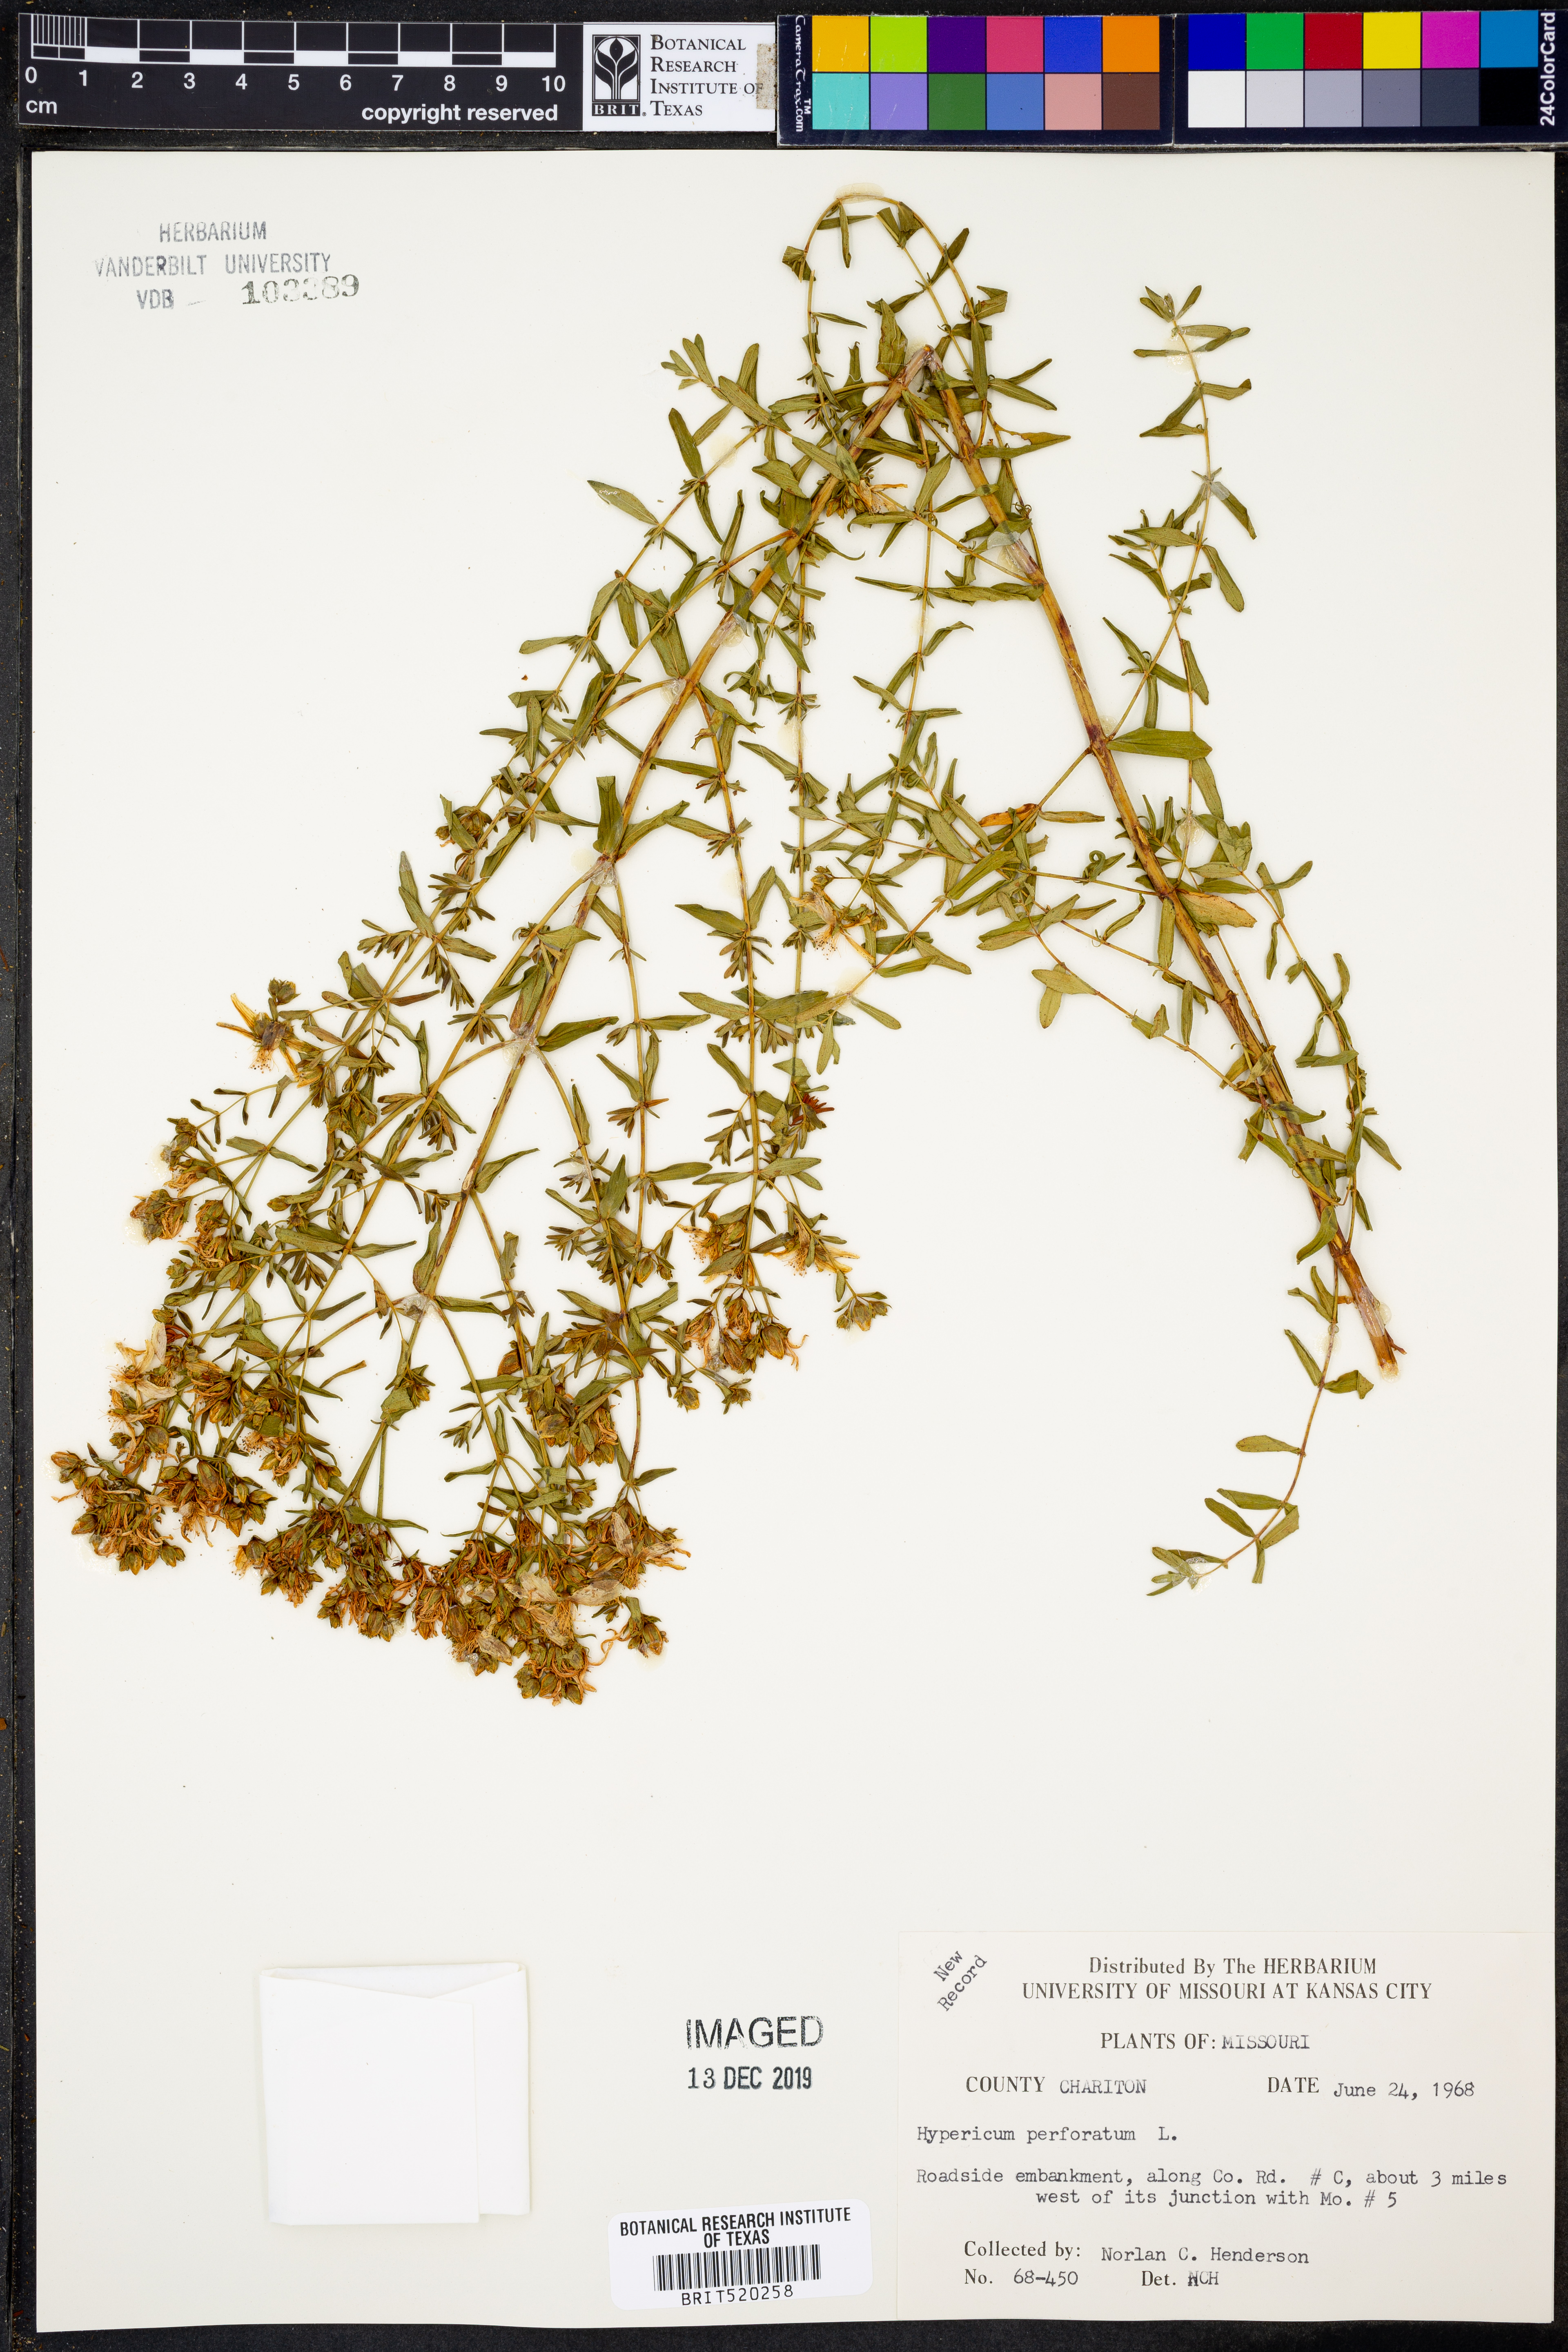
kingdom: Plantae
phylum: Tracheophyta
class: Magnoliopsida
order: Malpighiales
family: Hypericaceae
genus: Hypericum
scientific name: Hypericum perforatum
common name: Common st. johnswort
